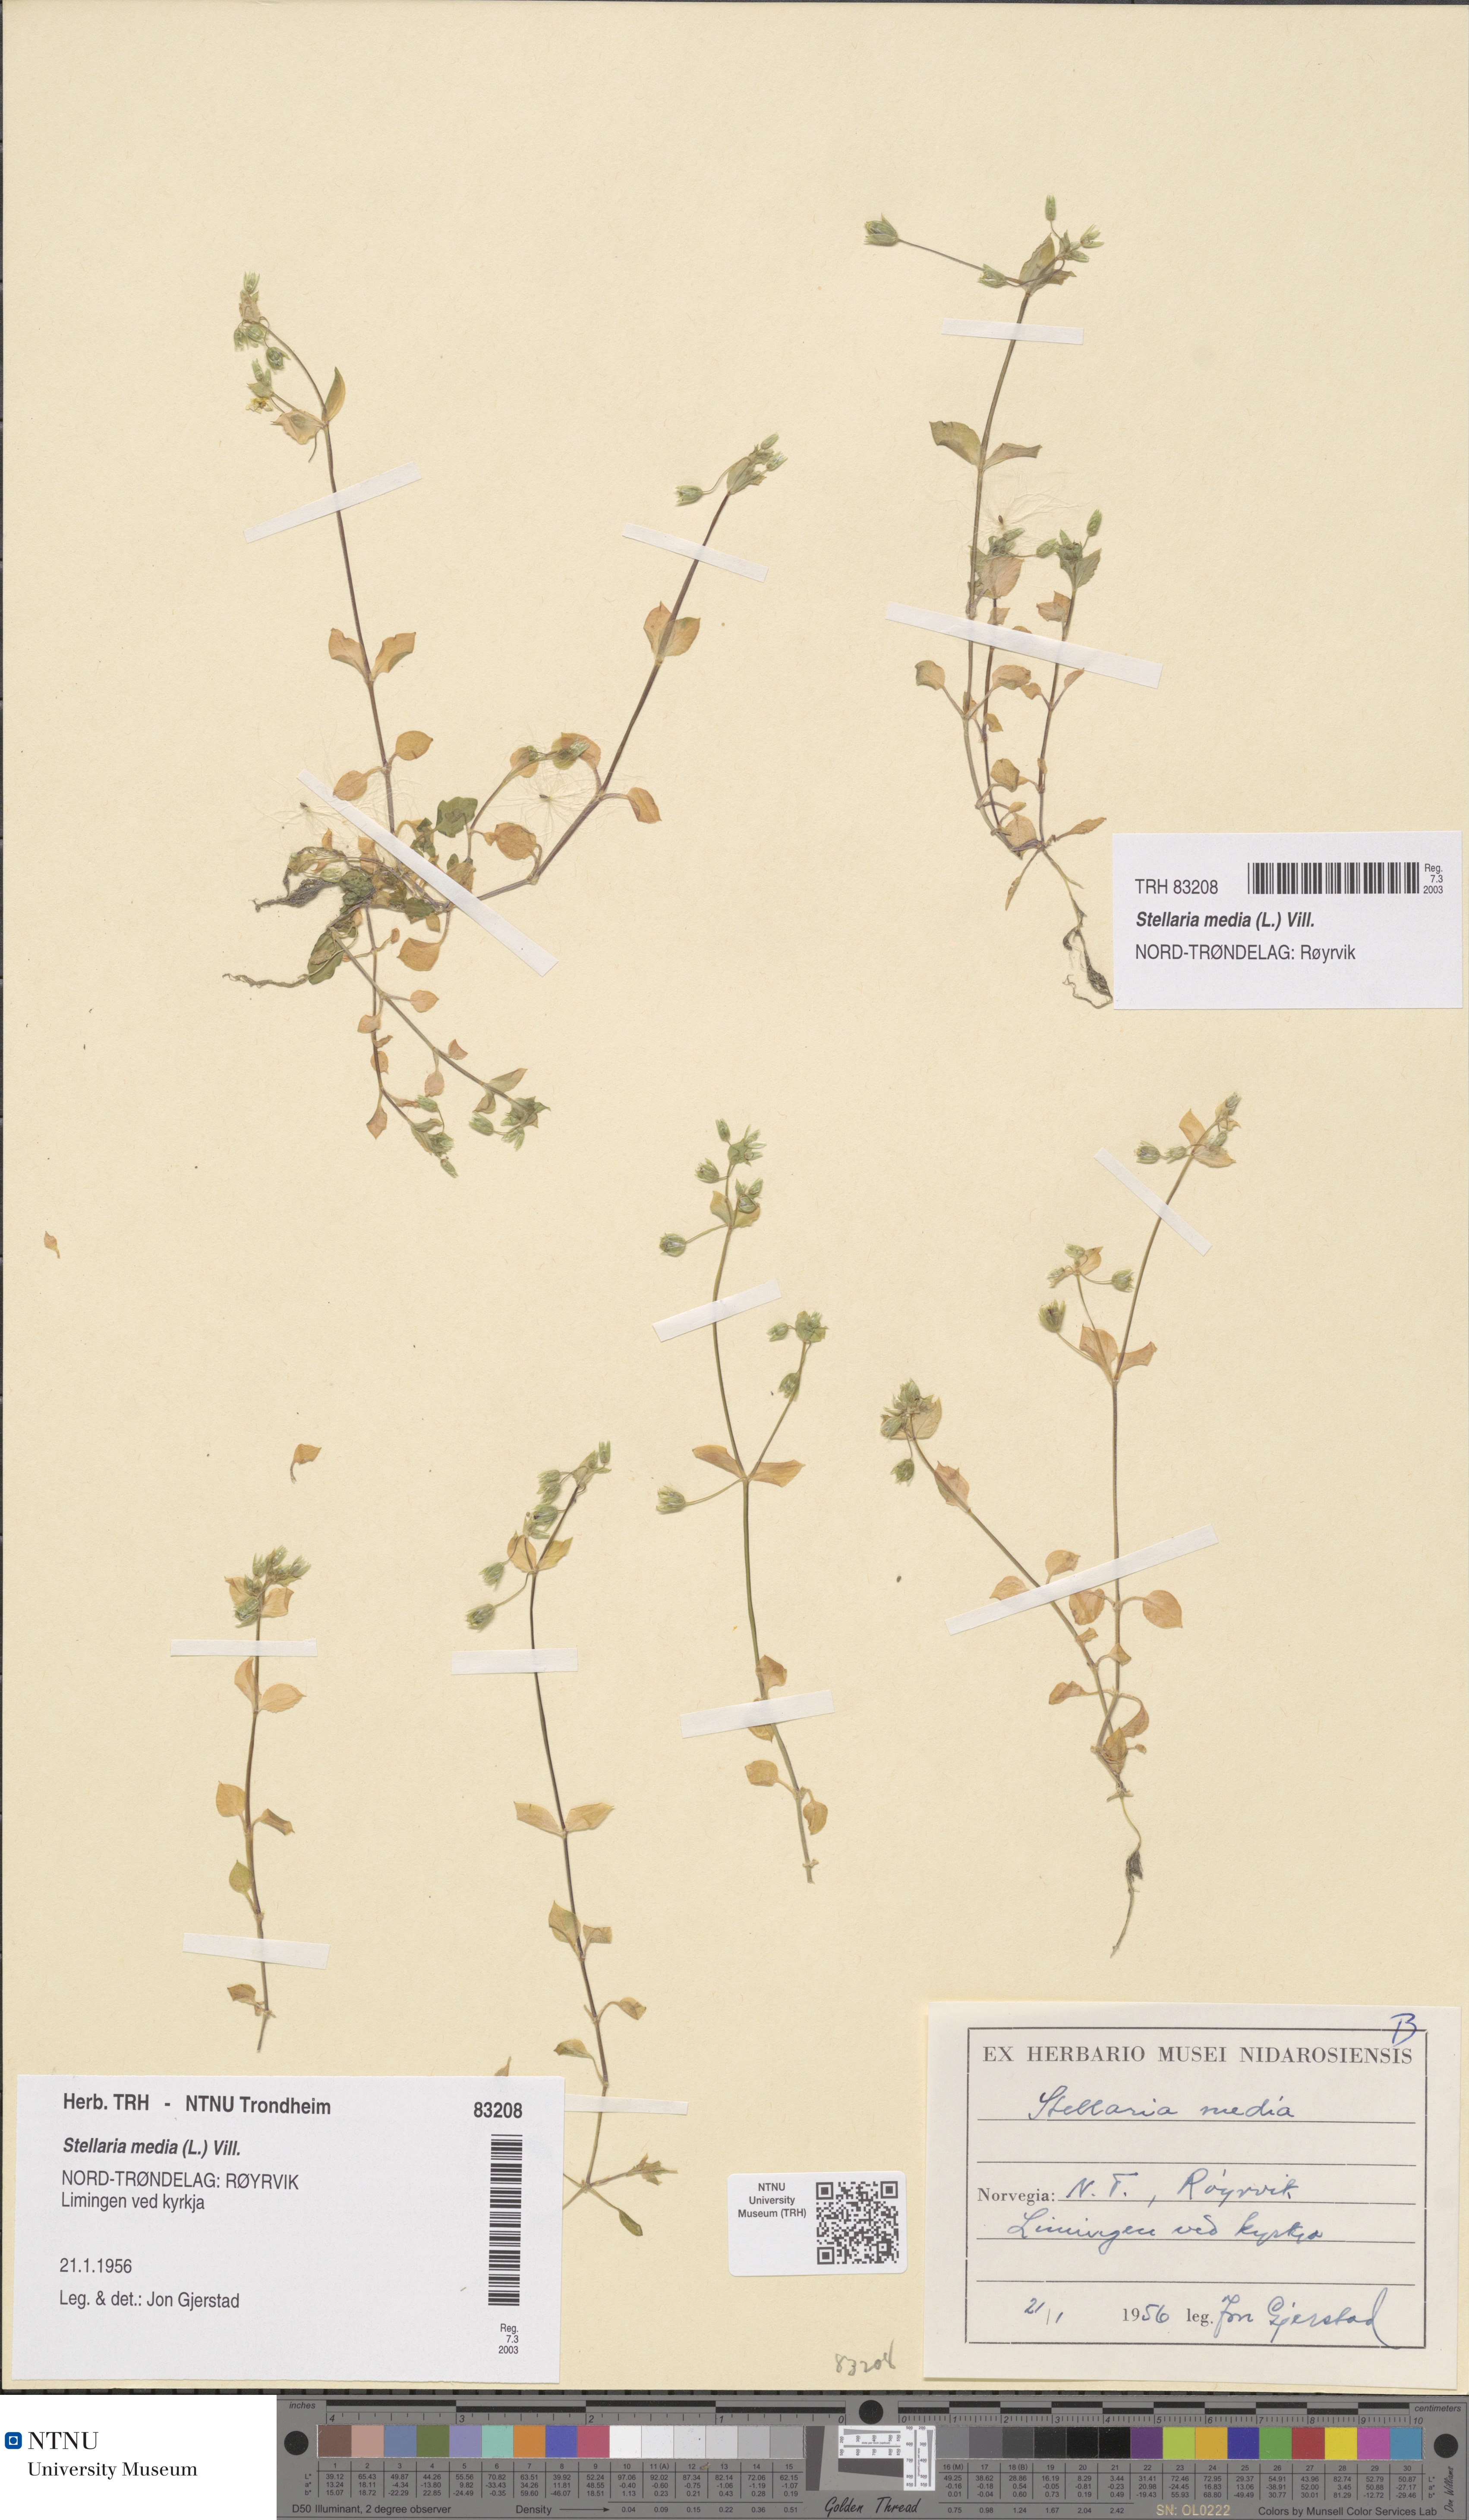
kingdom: Plantae
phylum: Tracheophyta
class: Magnoliopsida
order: Caryophyllales
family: Caryophyllaceae
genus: Stellaria
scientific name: Stellaria media
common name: Common chickweed
